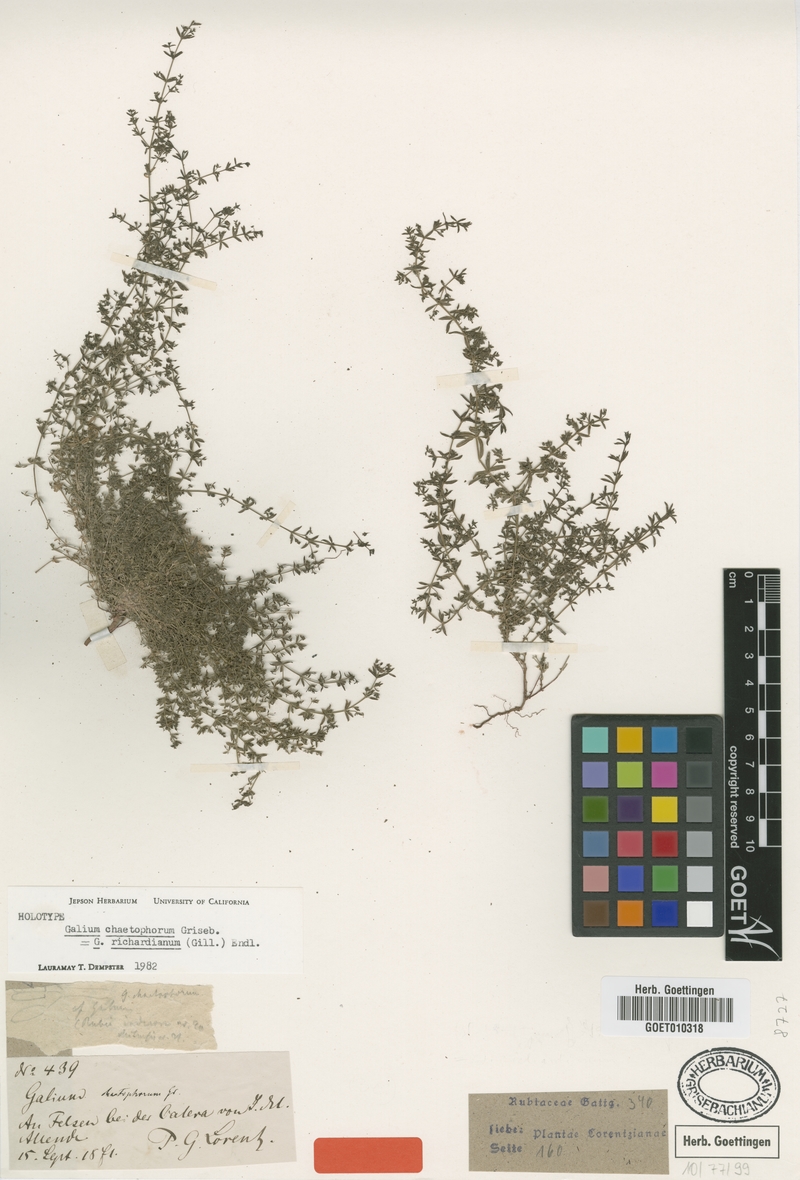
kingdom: Plantae
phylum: Tracheophyta
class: Magnoliopsida
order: Gentianales
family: Rubiaceae
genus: Galium
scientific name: Galium richardianum
